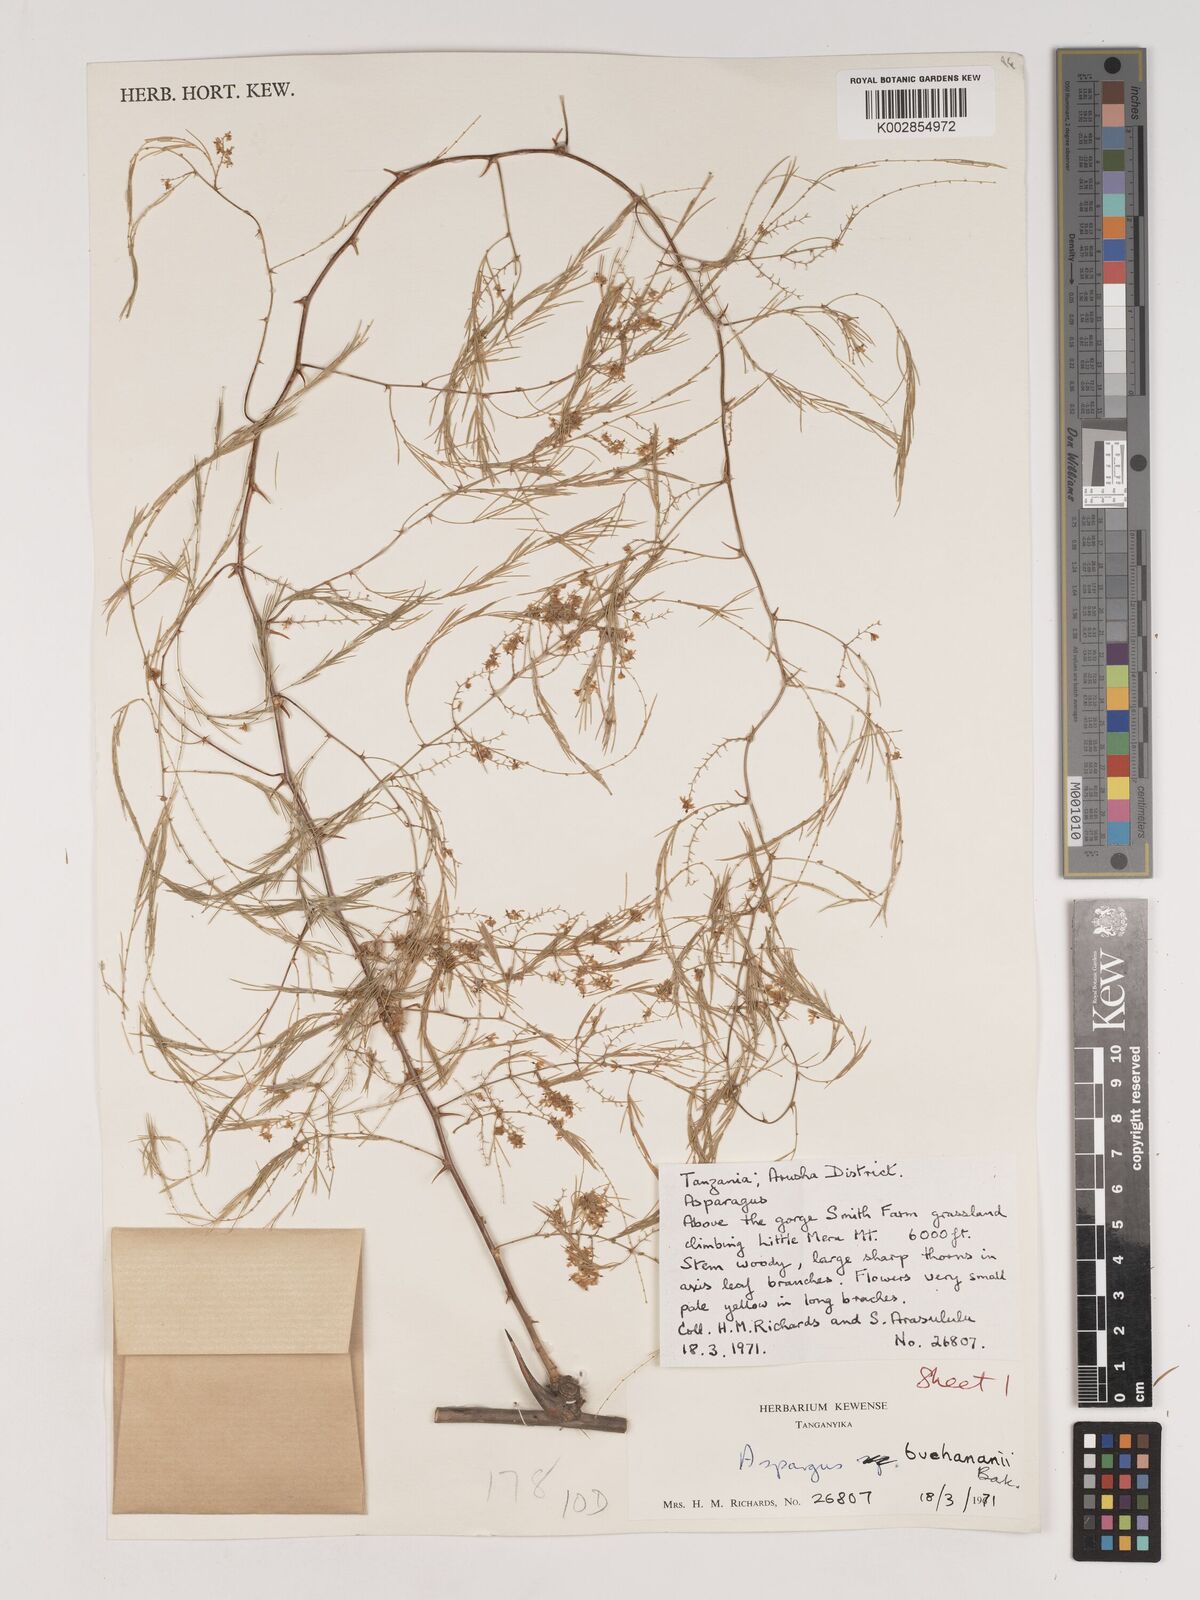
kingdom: Plantae
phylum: Tracheophyta
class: Liliopsida
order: Asparagales
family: Asparagaceae
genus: Asparagus
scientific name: Asparagus buchananii
